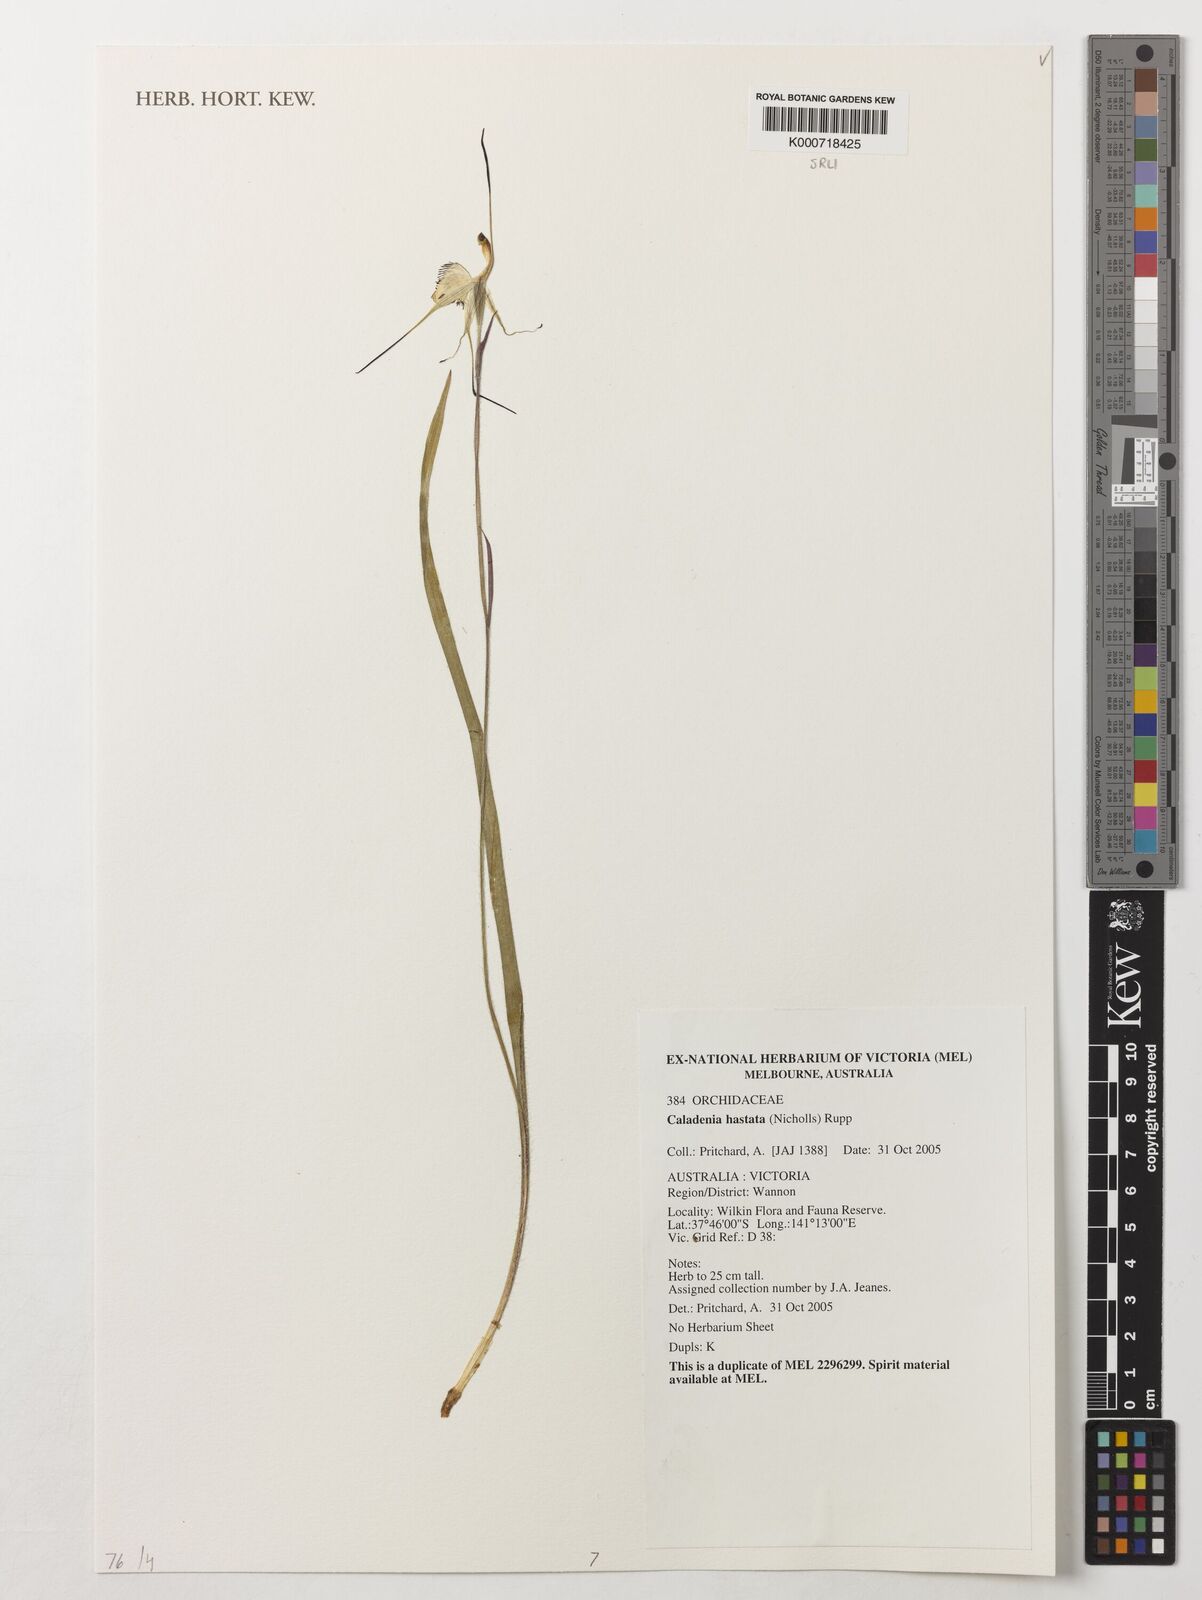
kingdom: Plantae
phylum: Tracheophyta
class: Liliopsida
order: Asparagales
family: Orchidaceae
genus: Caladenia
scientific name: Caladenia hastata
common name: Mellblom's spider orchid
